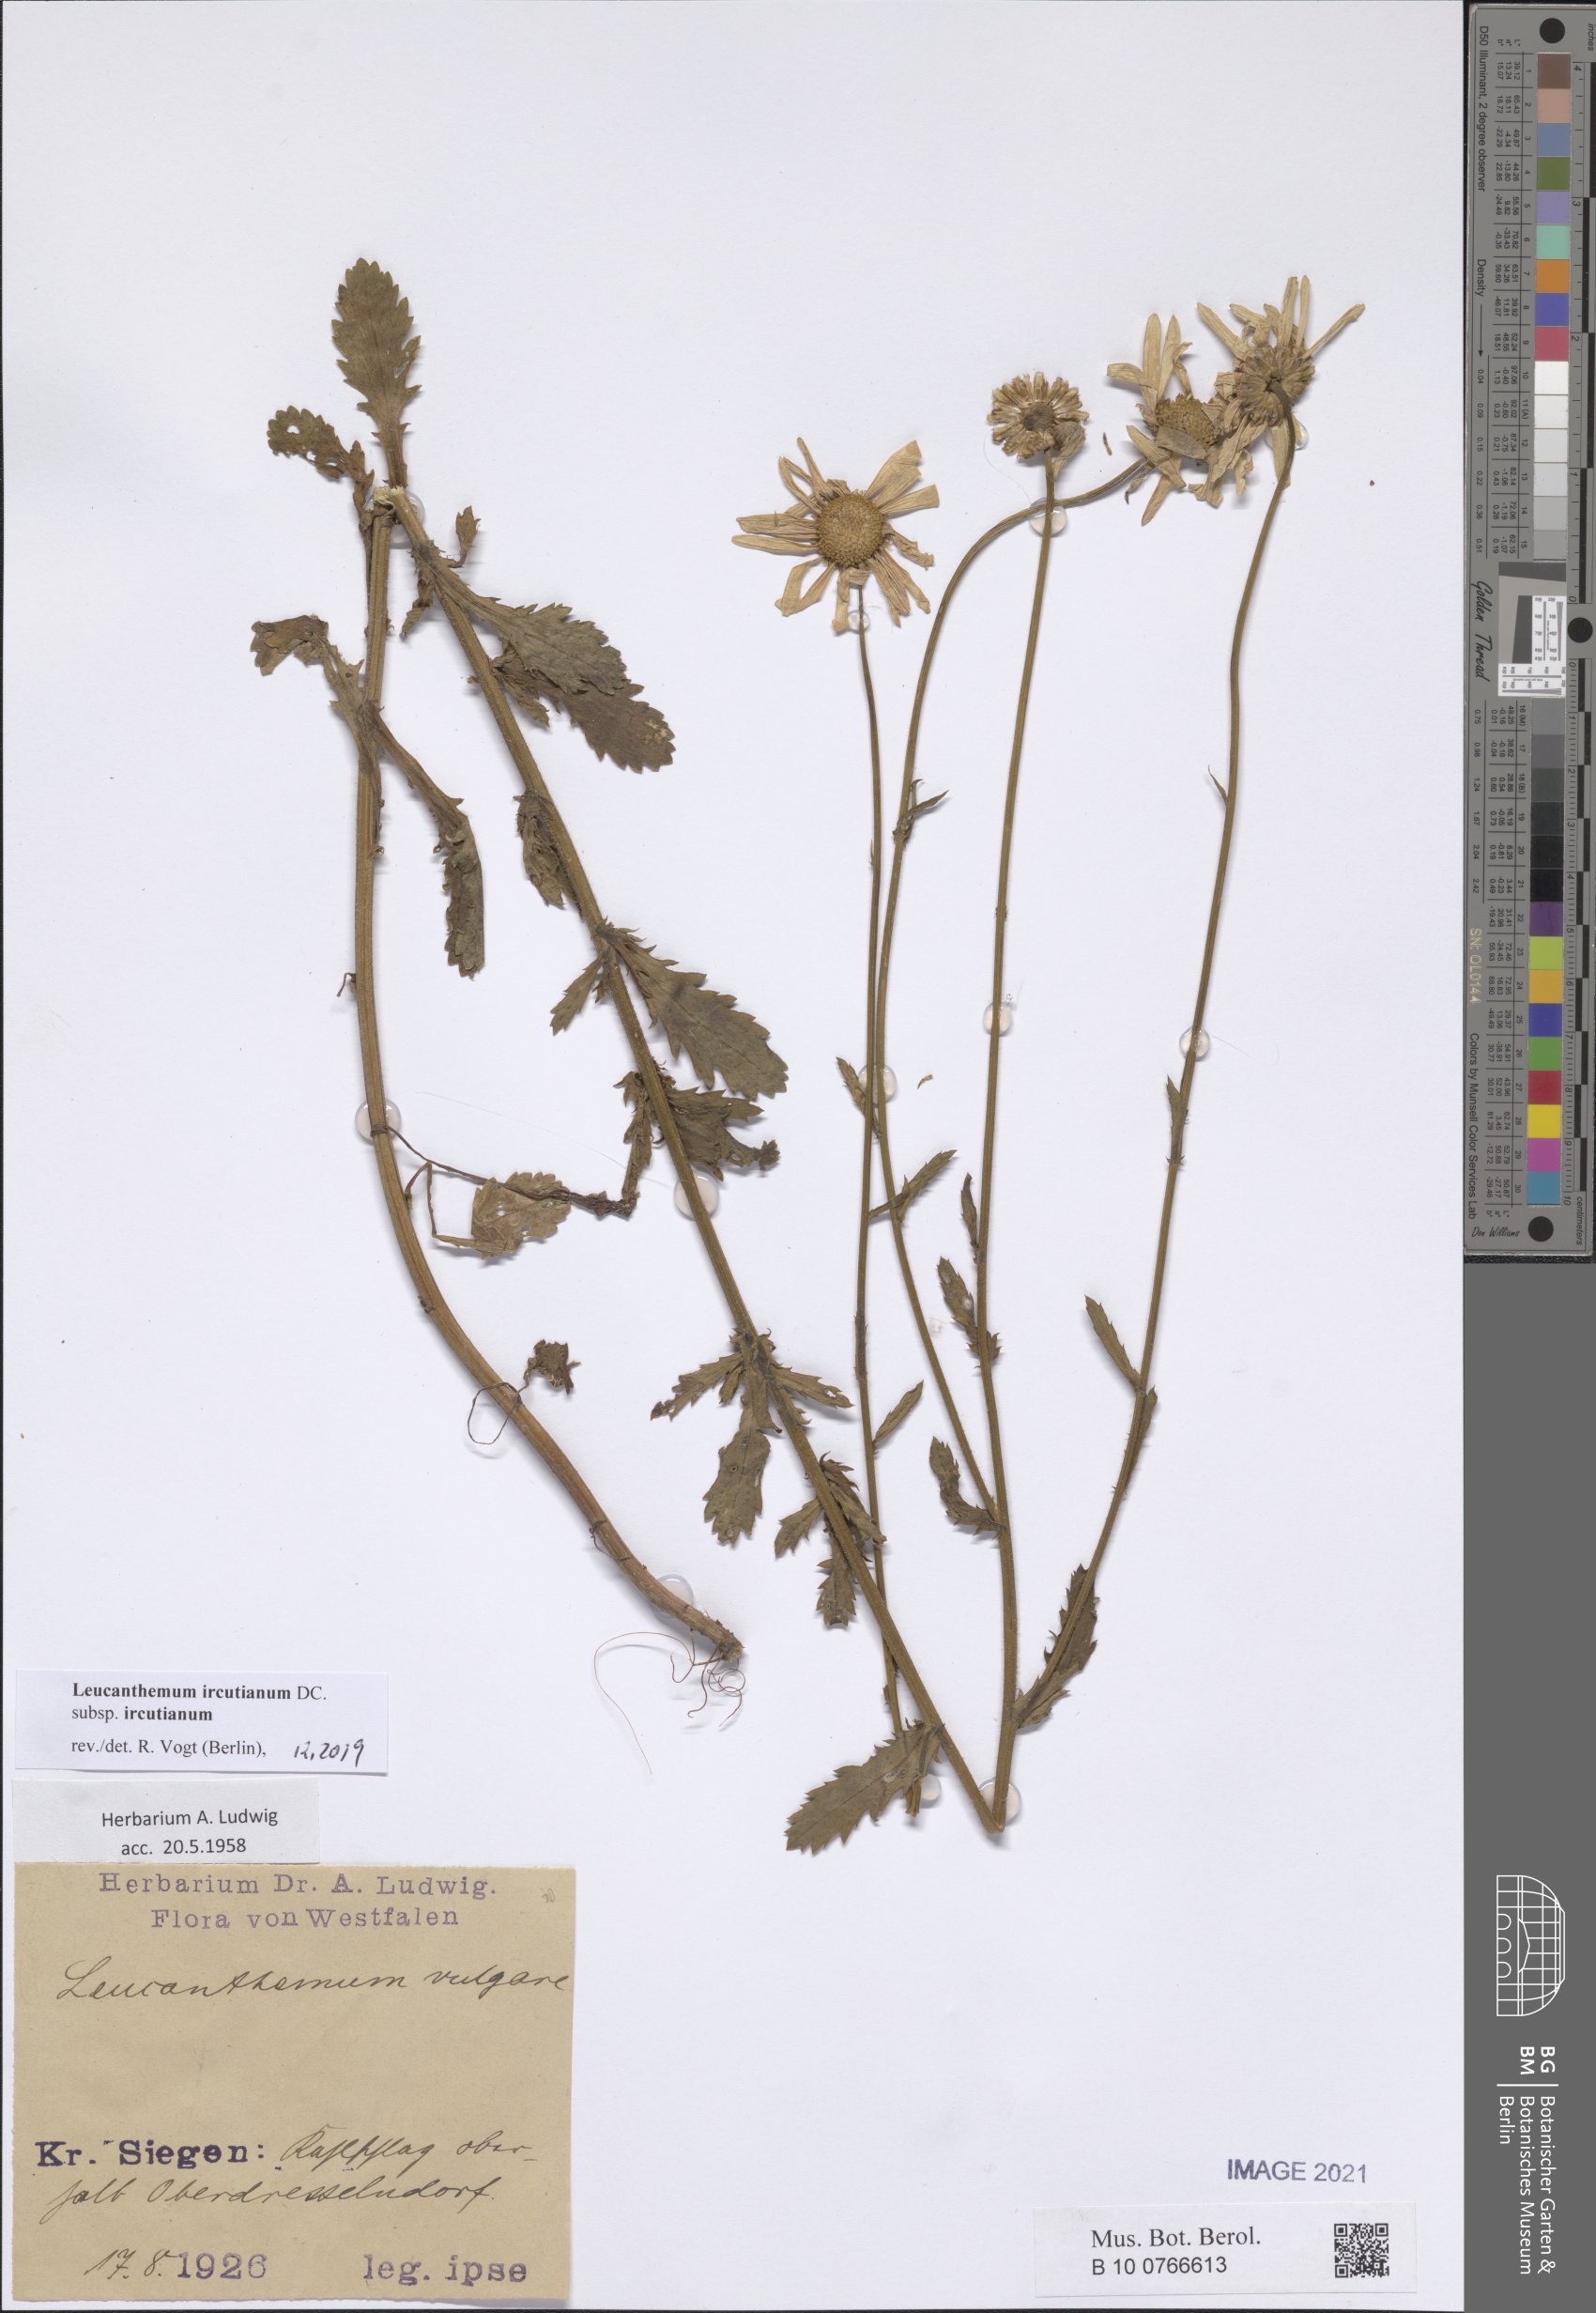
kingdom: Plantae
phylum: Tracheophyta
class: Magnoliopsida
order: Asterales
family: Asteraceae
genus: Leucanthemum
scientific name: Leucanthemum ircutianum
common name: Daisy
